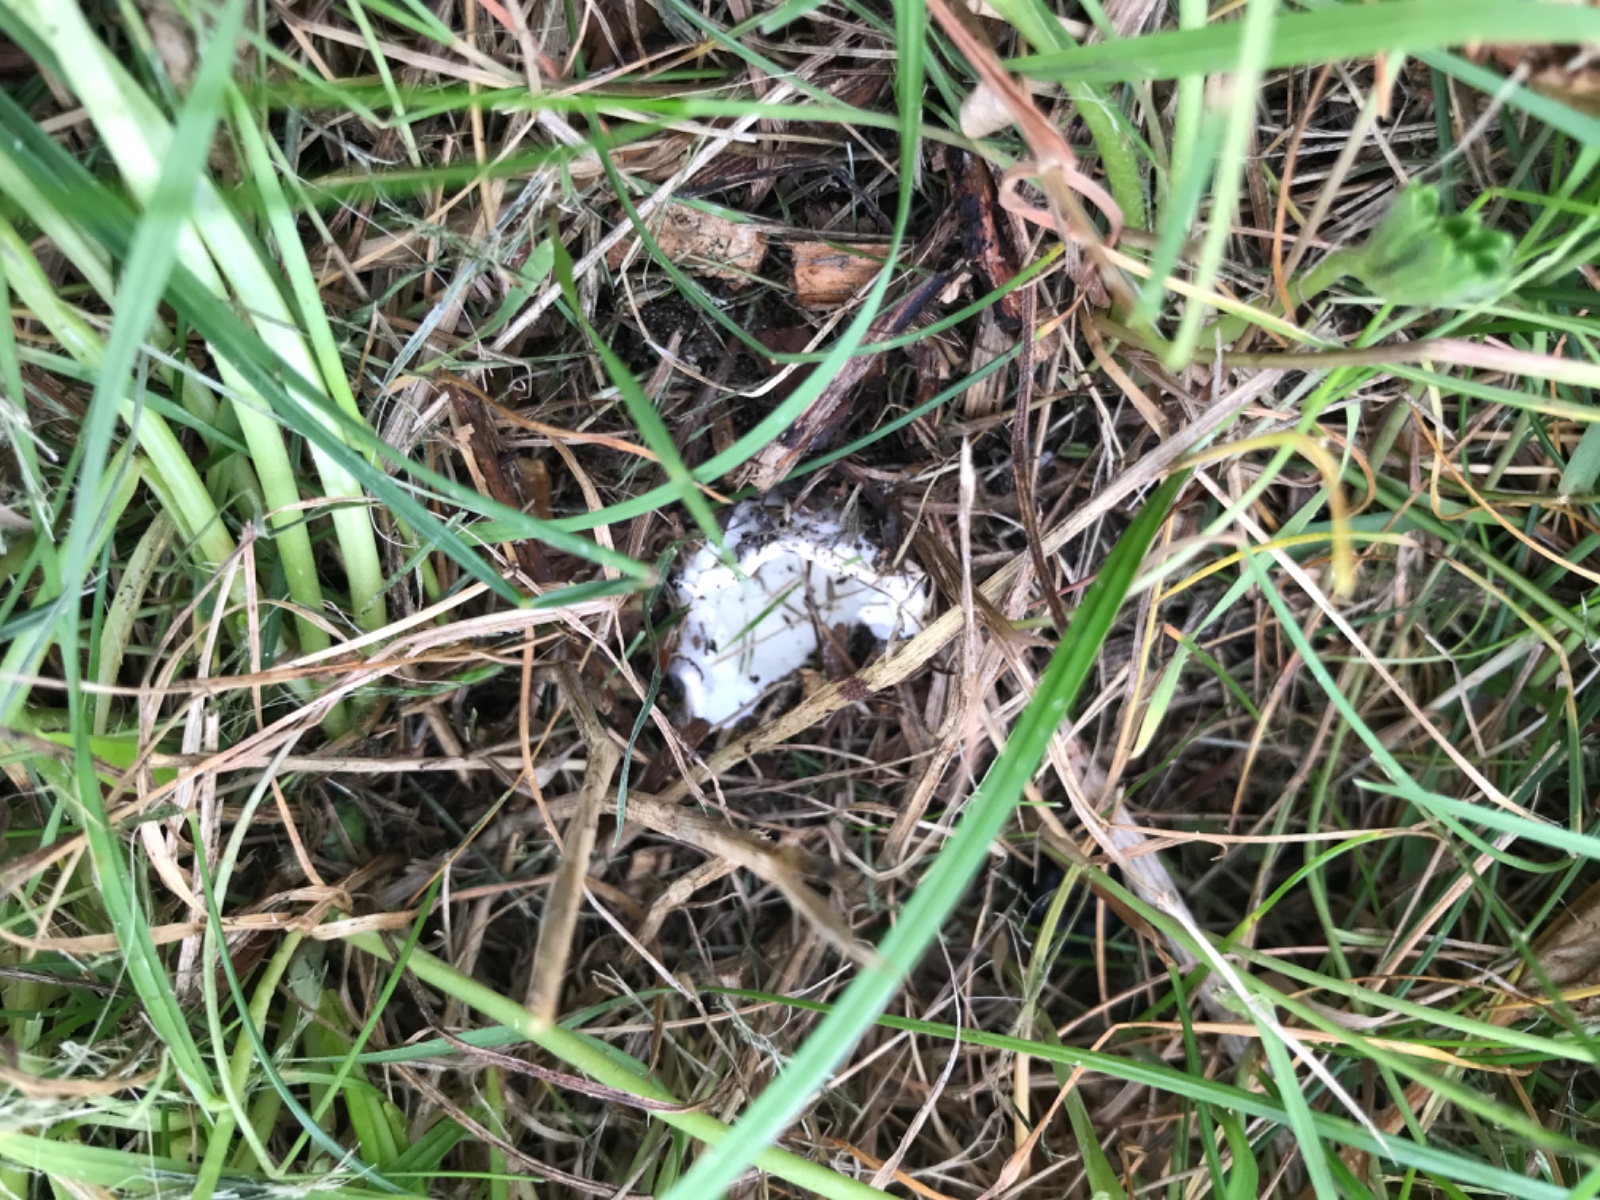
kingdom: Fungi
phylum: Basidiomycota
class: Agaricomycetes
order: Agaricales
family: Pluteaceae
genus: Volvopluteus
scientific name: Volvopluteus gloiocephalus
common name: høj posesvamp
